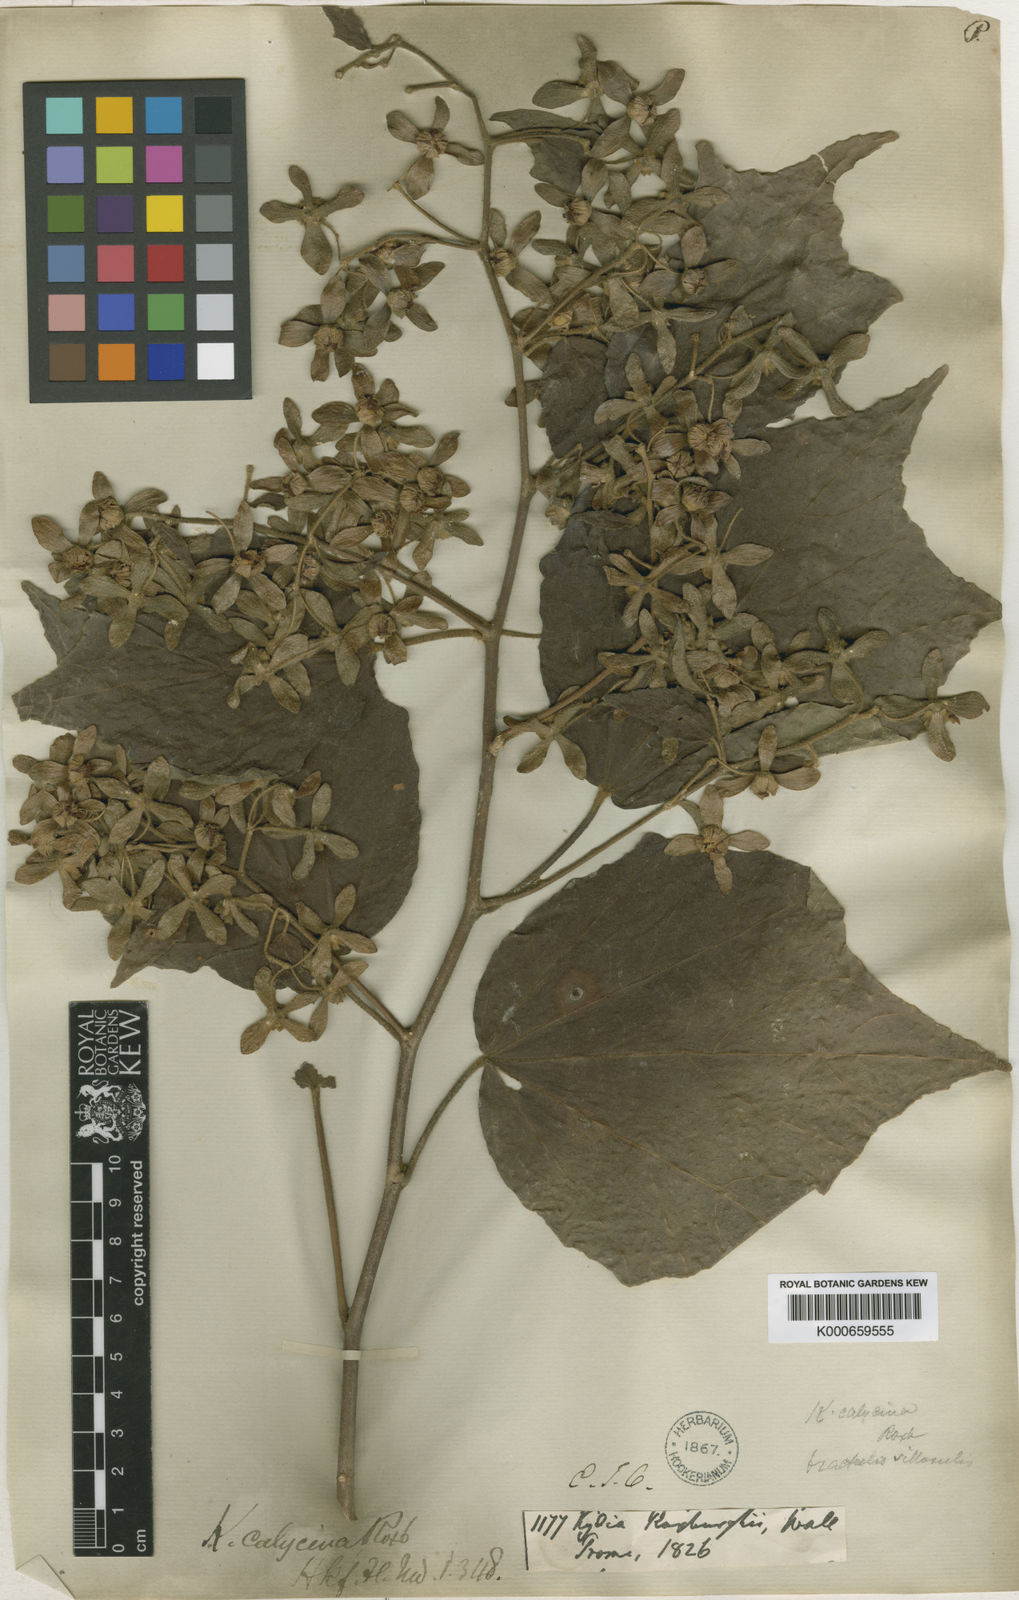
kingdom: Plantae
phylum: Tracheophyta
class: Magnoliopsida
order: Malvales
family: Malvaceae
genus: Kydia
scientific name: Kydia calycina
